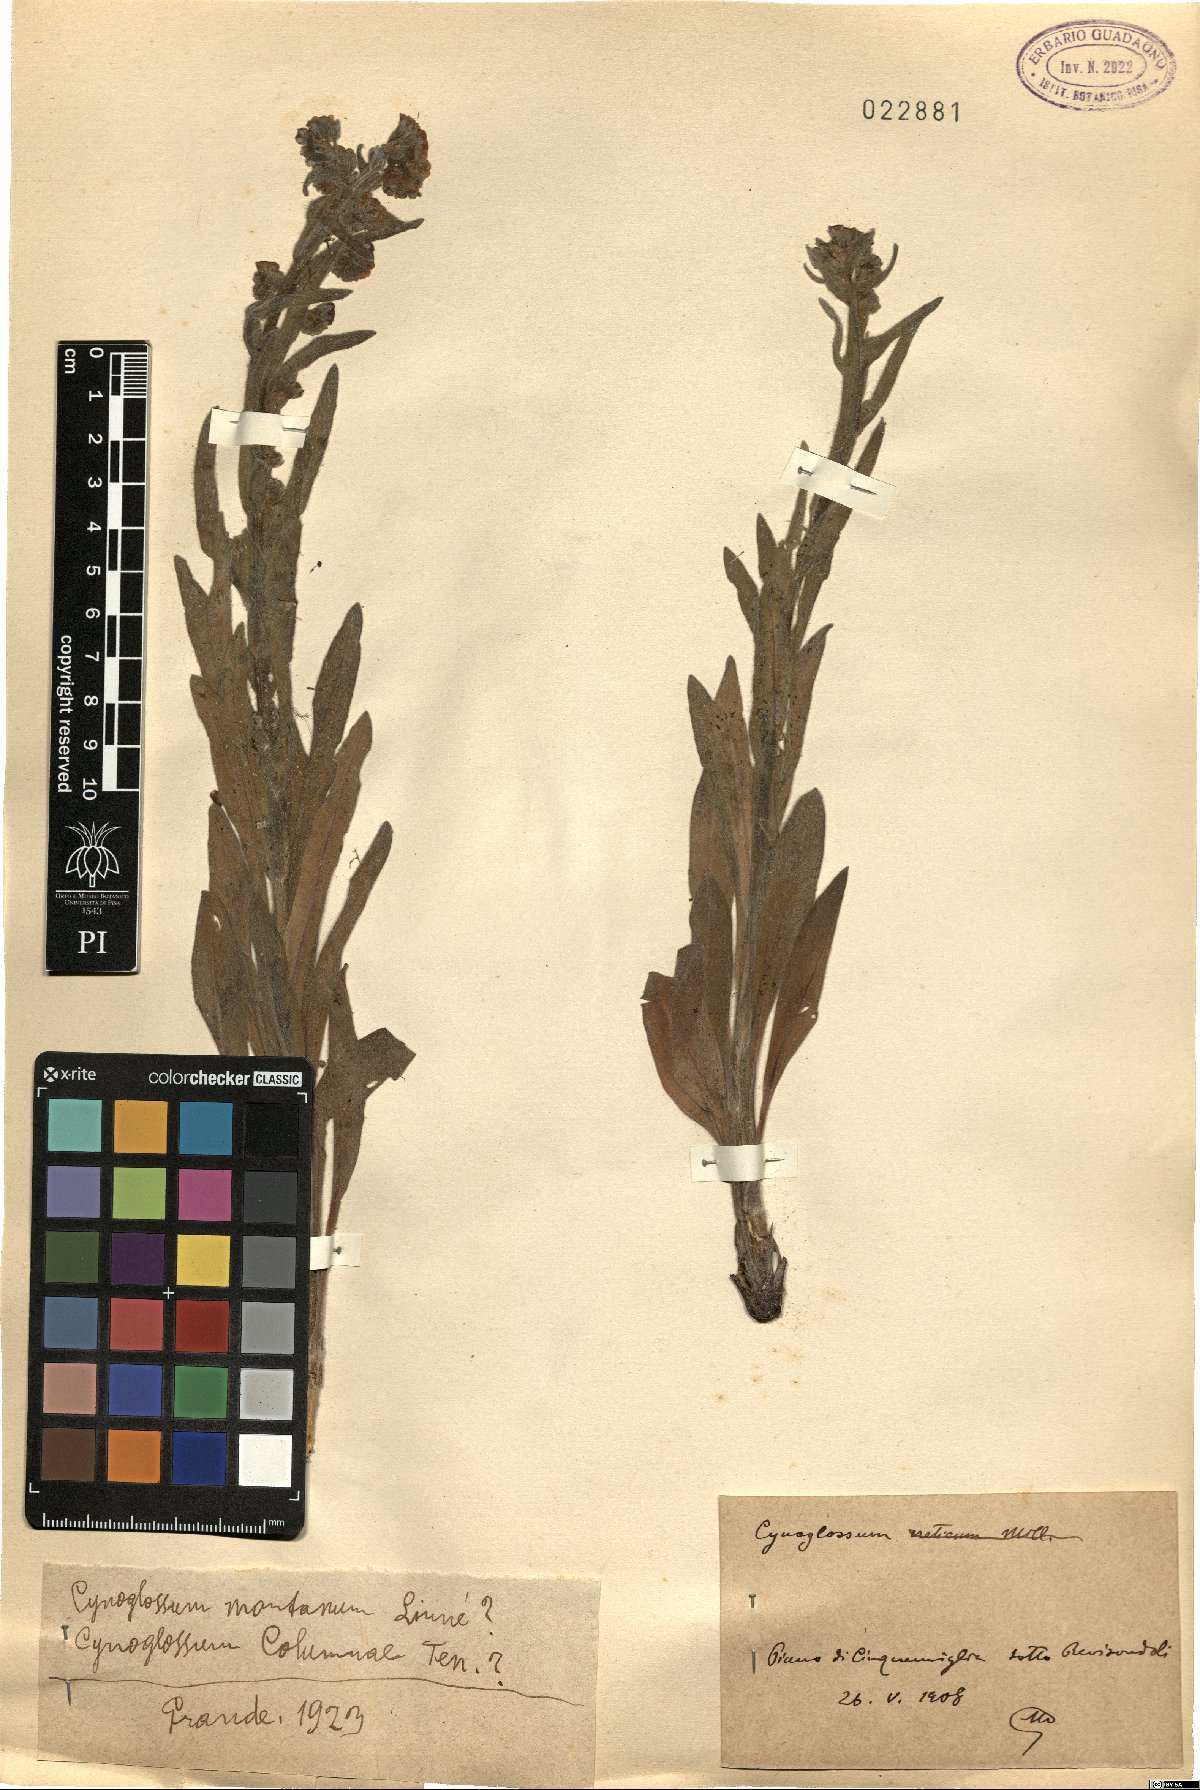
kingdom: Plantae
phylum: Tracheophyta
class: Magnoliopsida
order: Boraginales
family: Boraginaceae
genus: Cynoglossum
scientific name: Cynoglossum montanum
